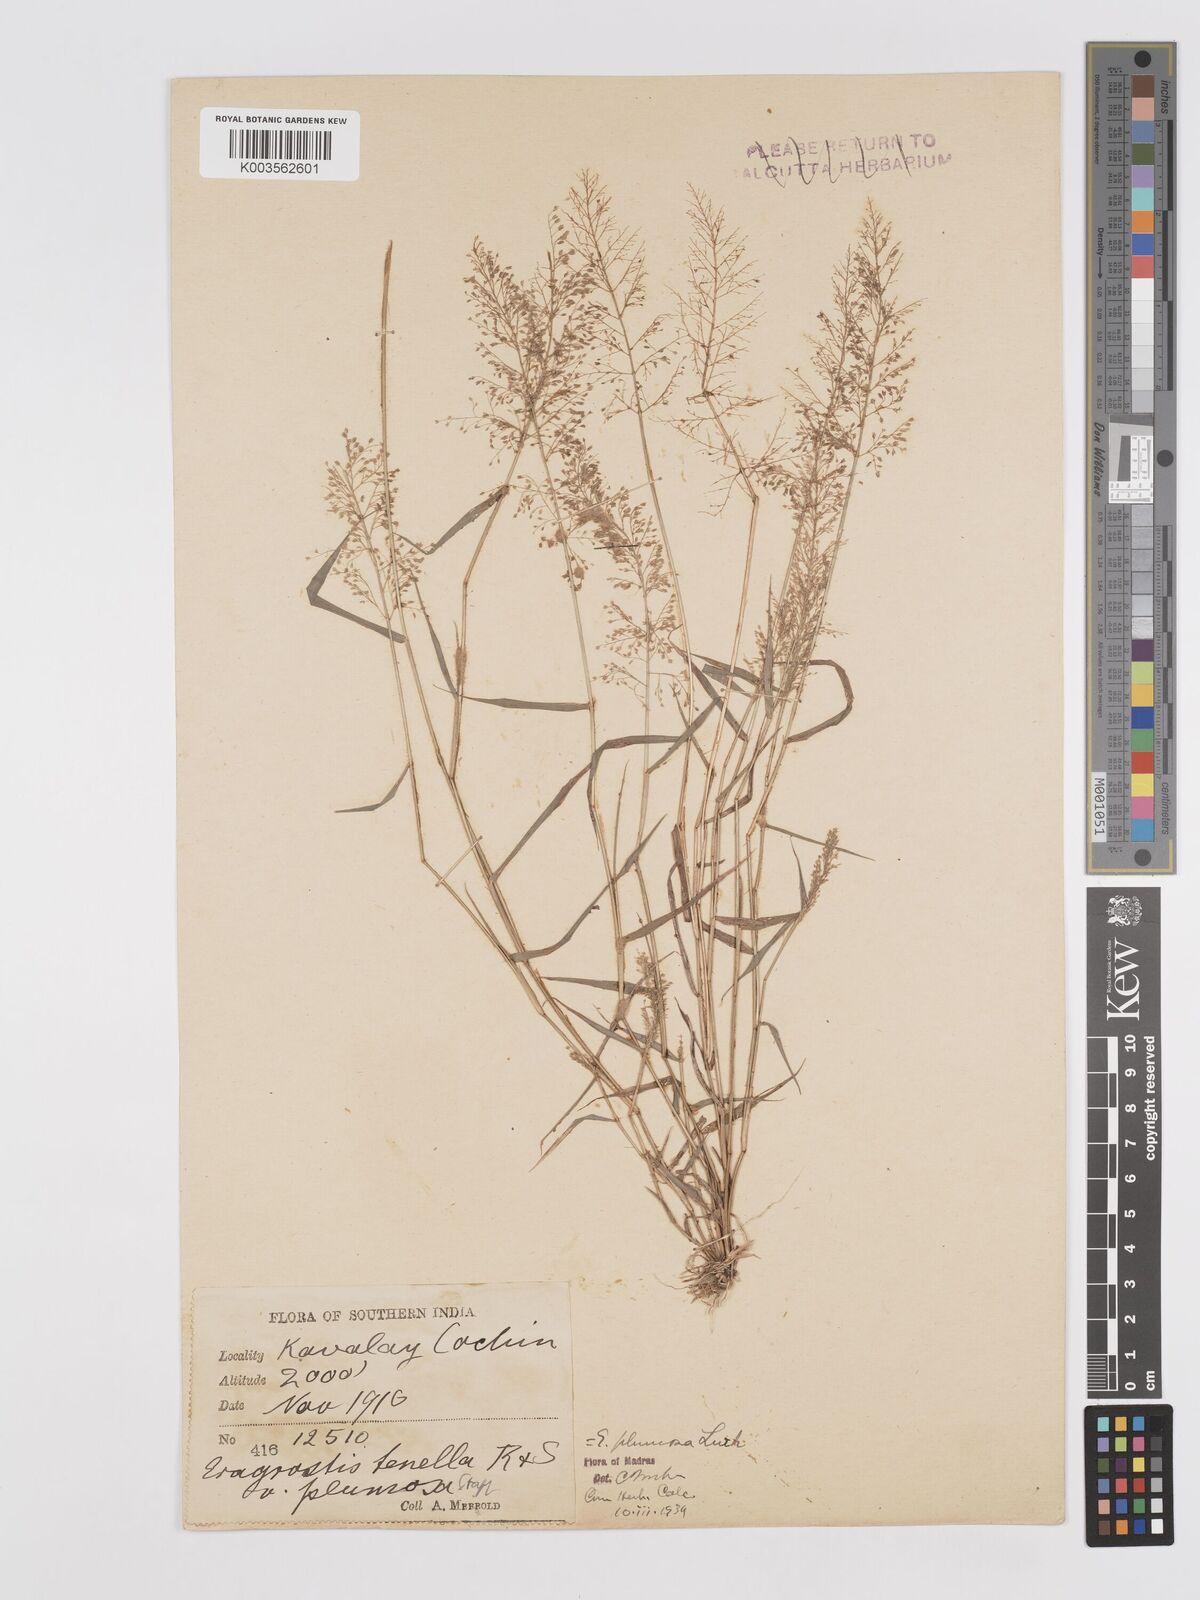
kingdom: Plantae
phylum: Tracheophyta
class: Liliopsida
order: Poales
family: Poaceae
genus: Eragrostis
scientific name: Eragrostis tenella
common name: Japanese lovegrass
